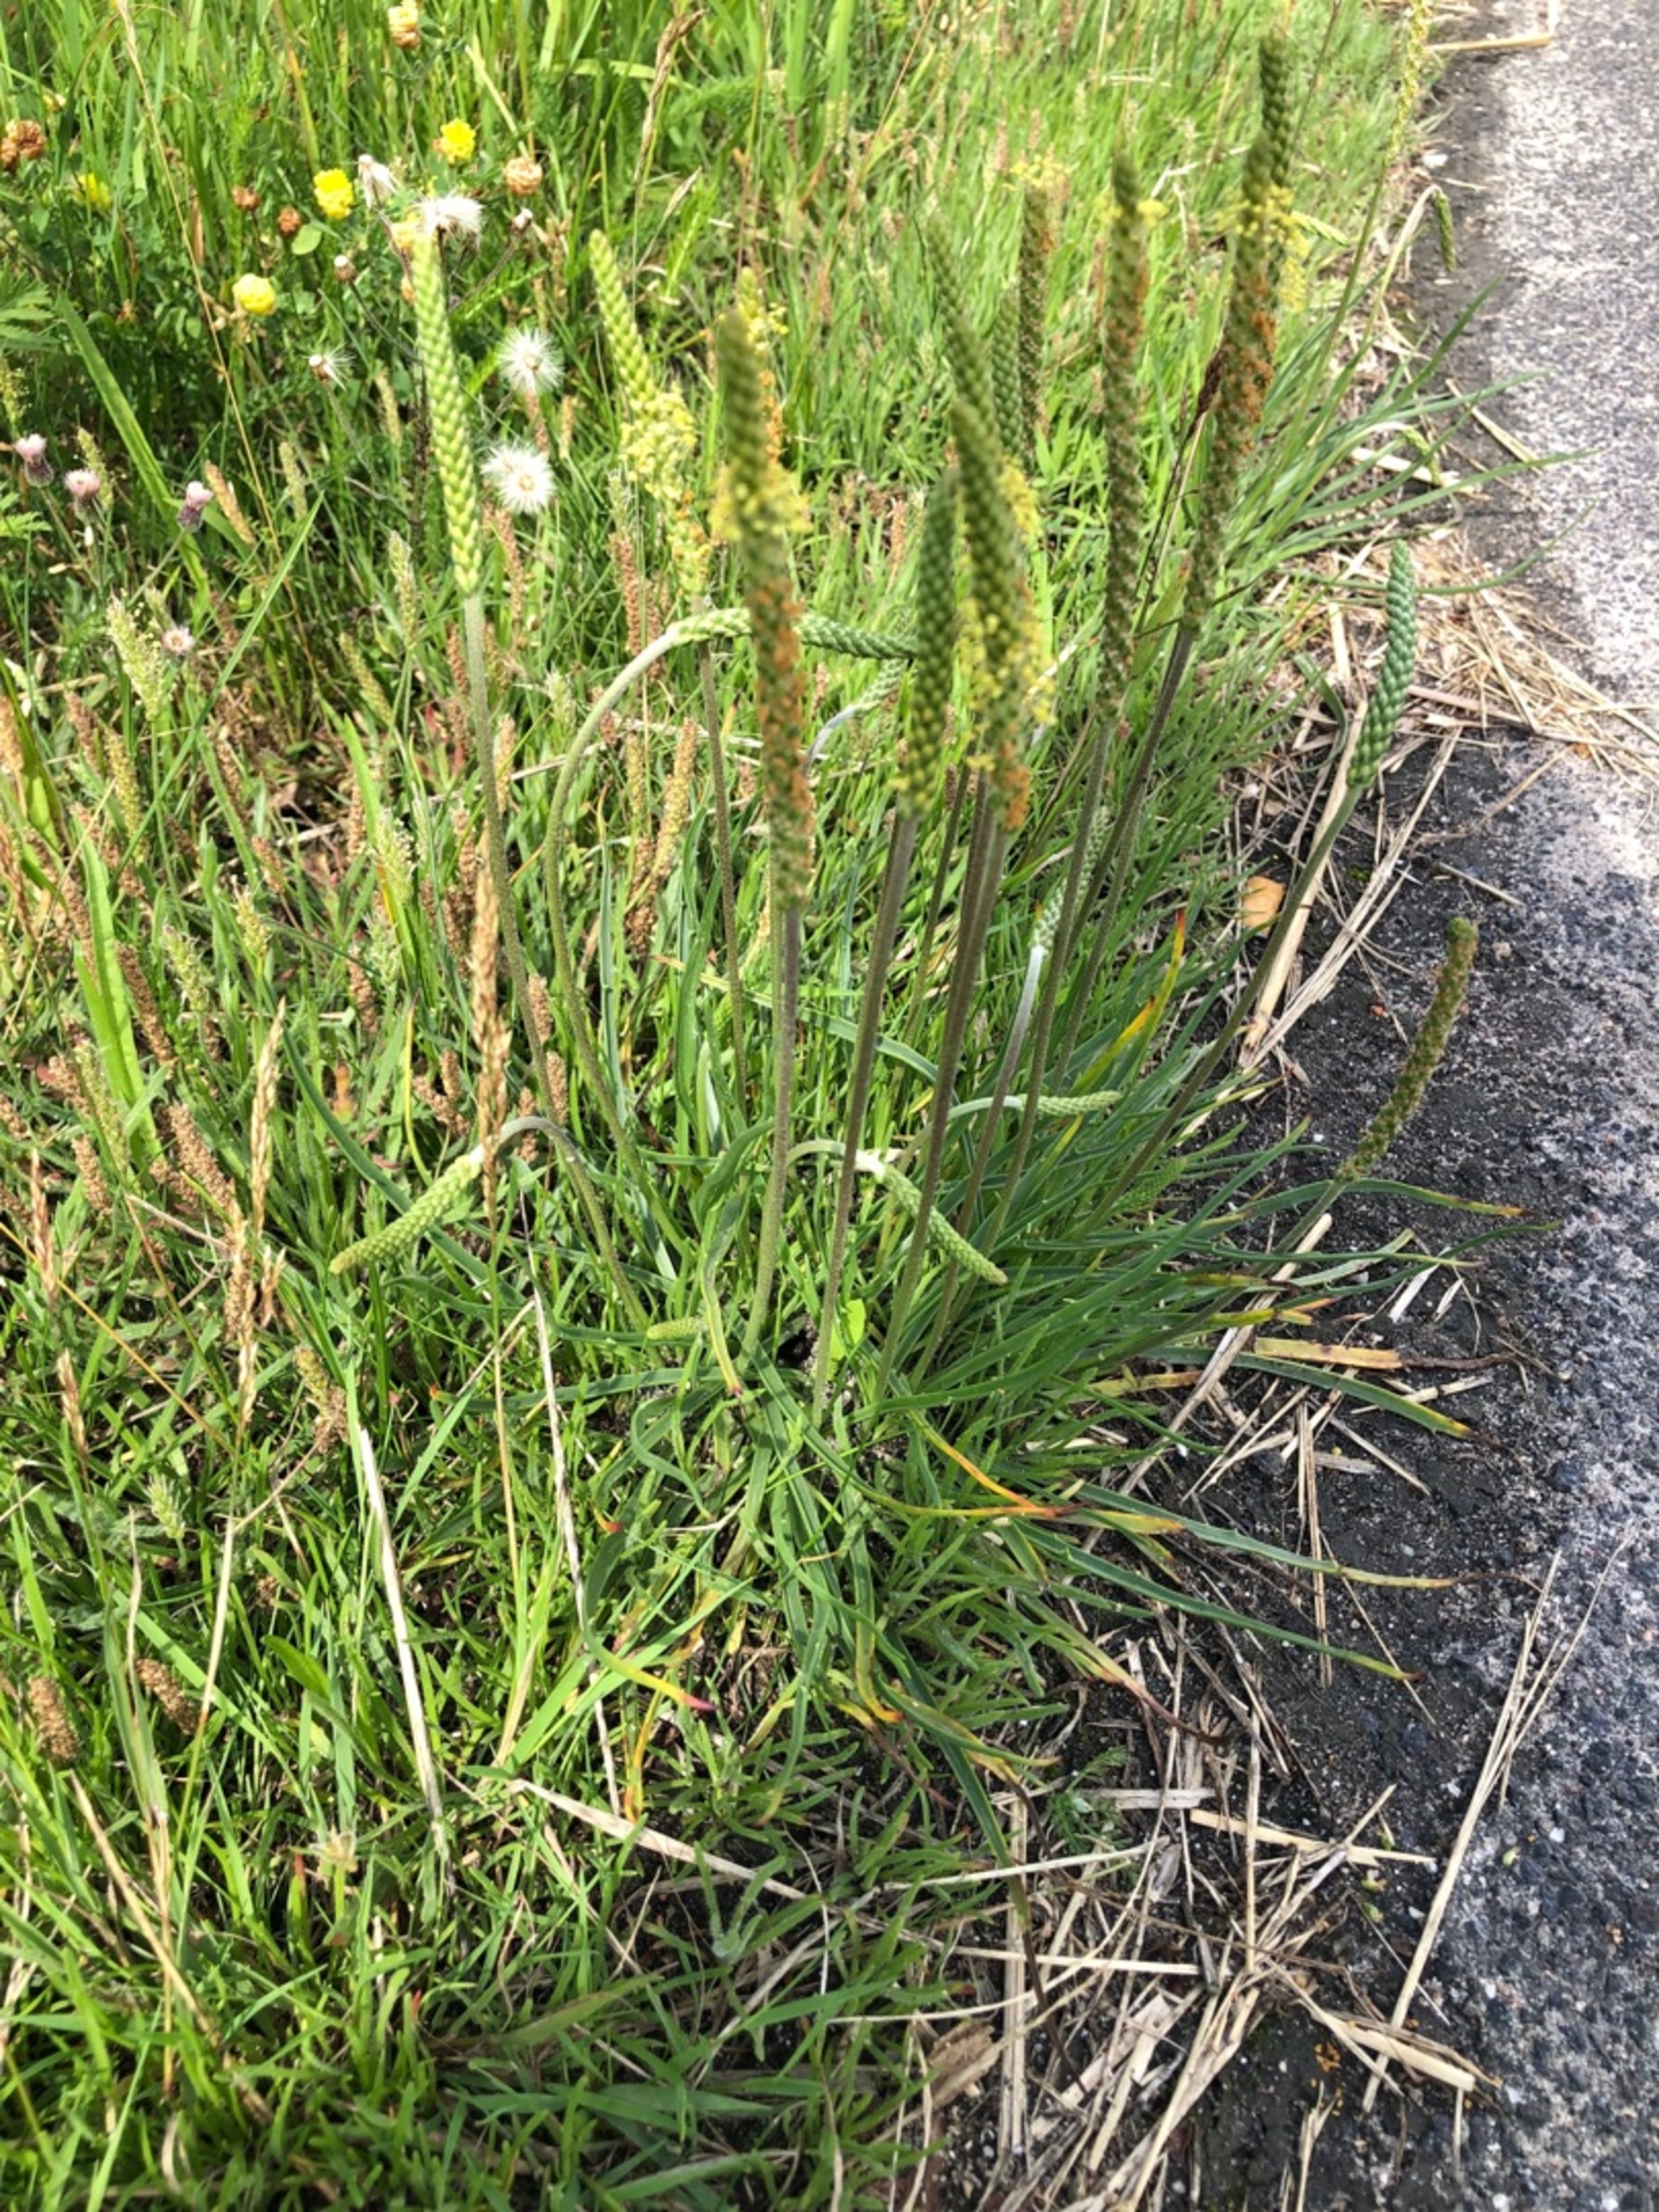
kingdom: Plantae
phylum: Tracheophyta
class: Magnoliopsida
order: Lamiales
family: Plantaginaceae
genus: Plantago
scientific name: Plantago maritima
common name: Strand-vejbred
